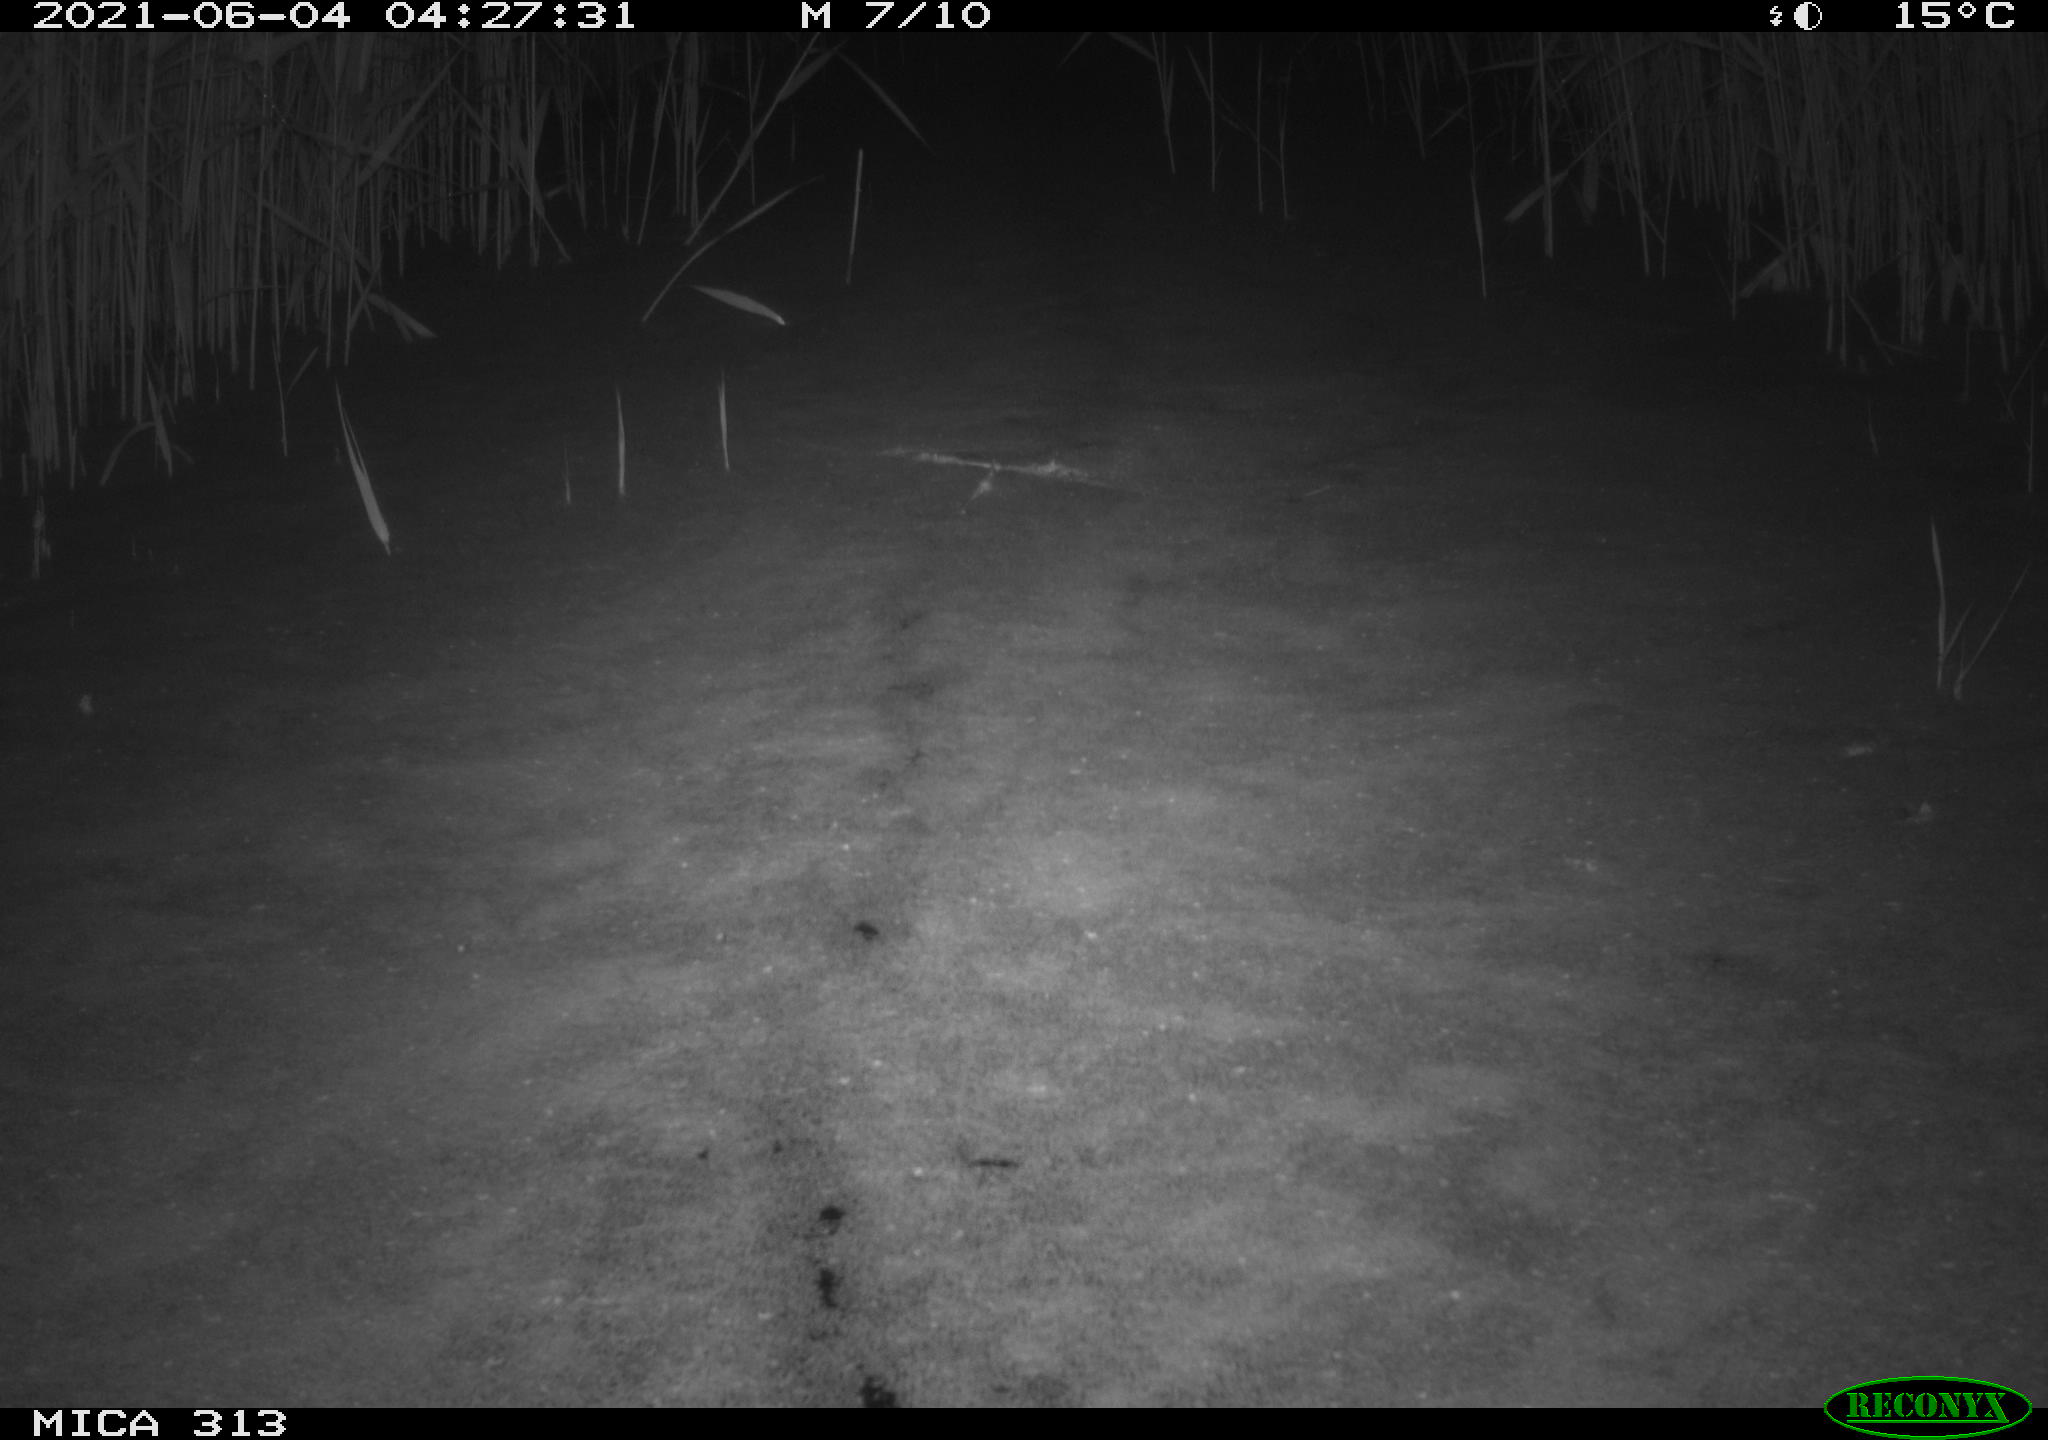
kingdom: Animalia
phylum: Chordata
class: Aves
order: Gruiformes
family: Rallidae
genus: Fulica
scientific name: Fulica atra
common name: Eurasian coot
